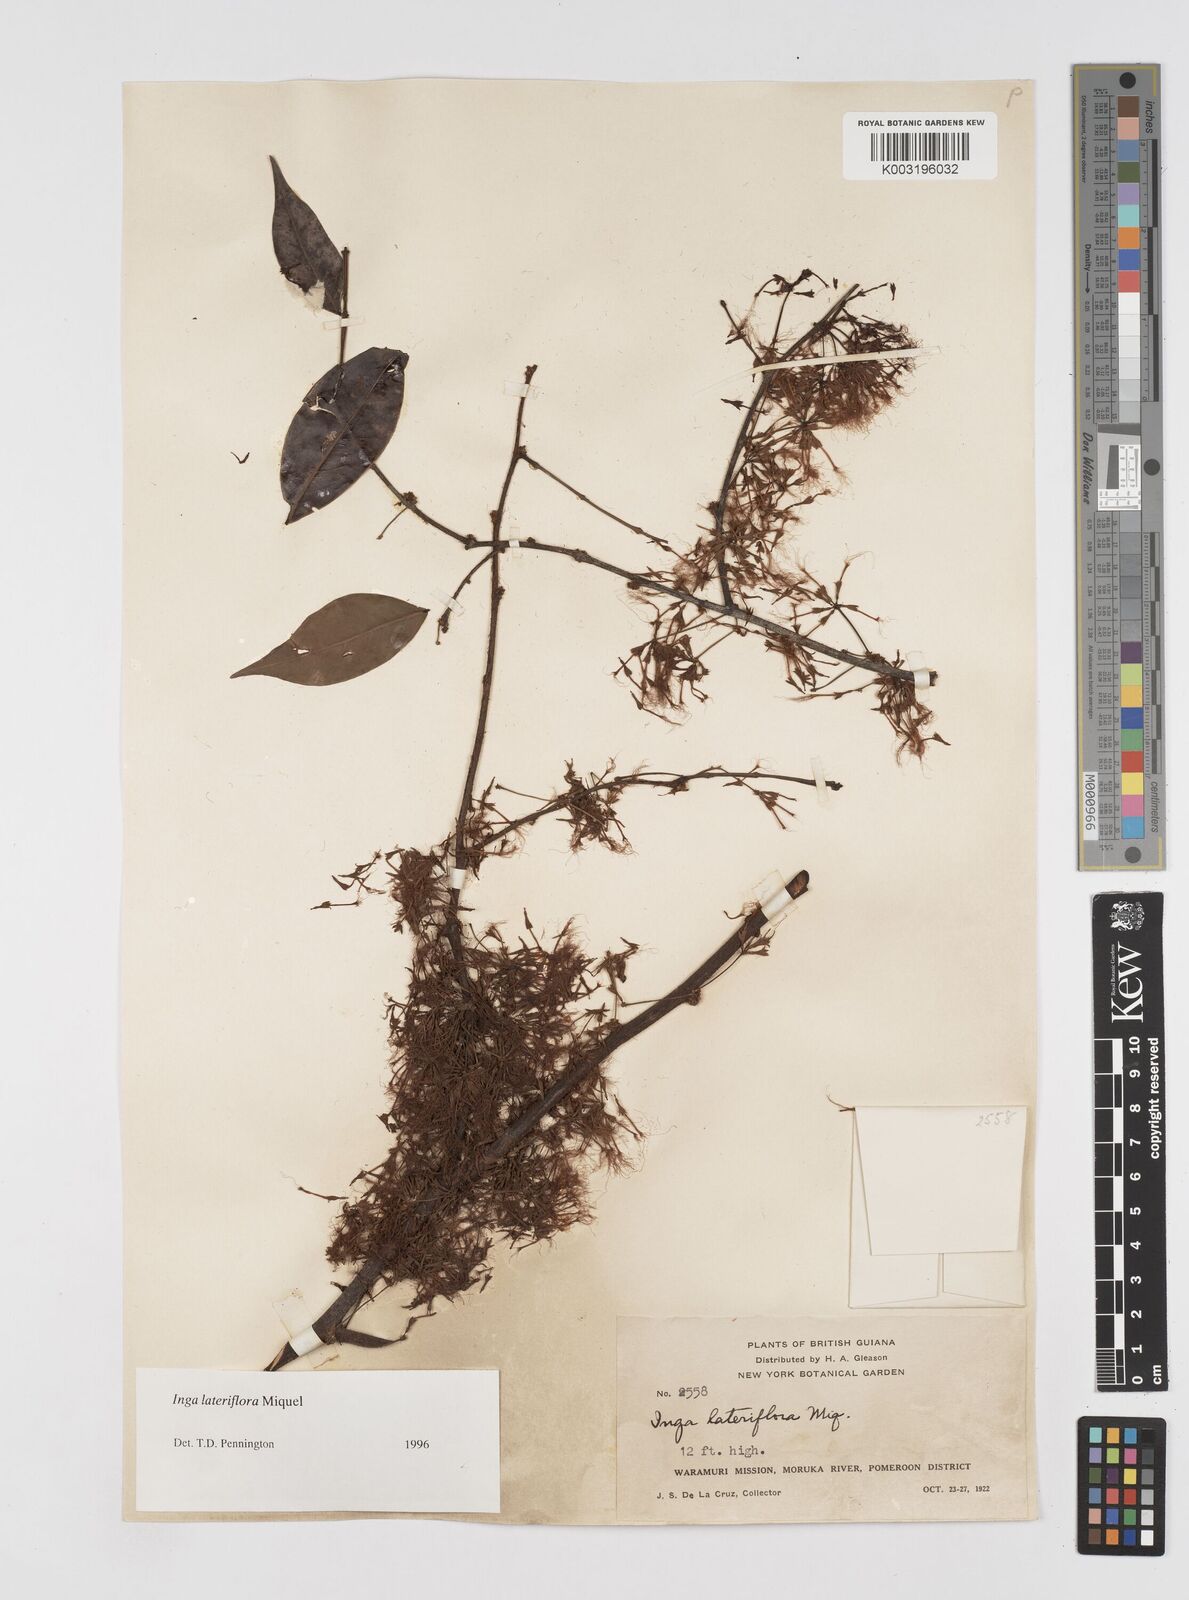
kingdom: Plantae
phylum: Tracheophyta
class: Magnoliopsida
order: Fabales
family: Fabaceae
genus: Inga
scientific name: Inga lateriflora
